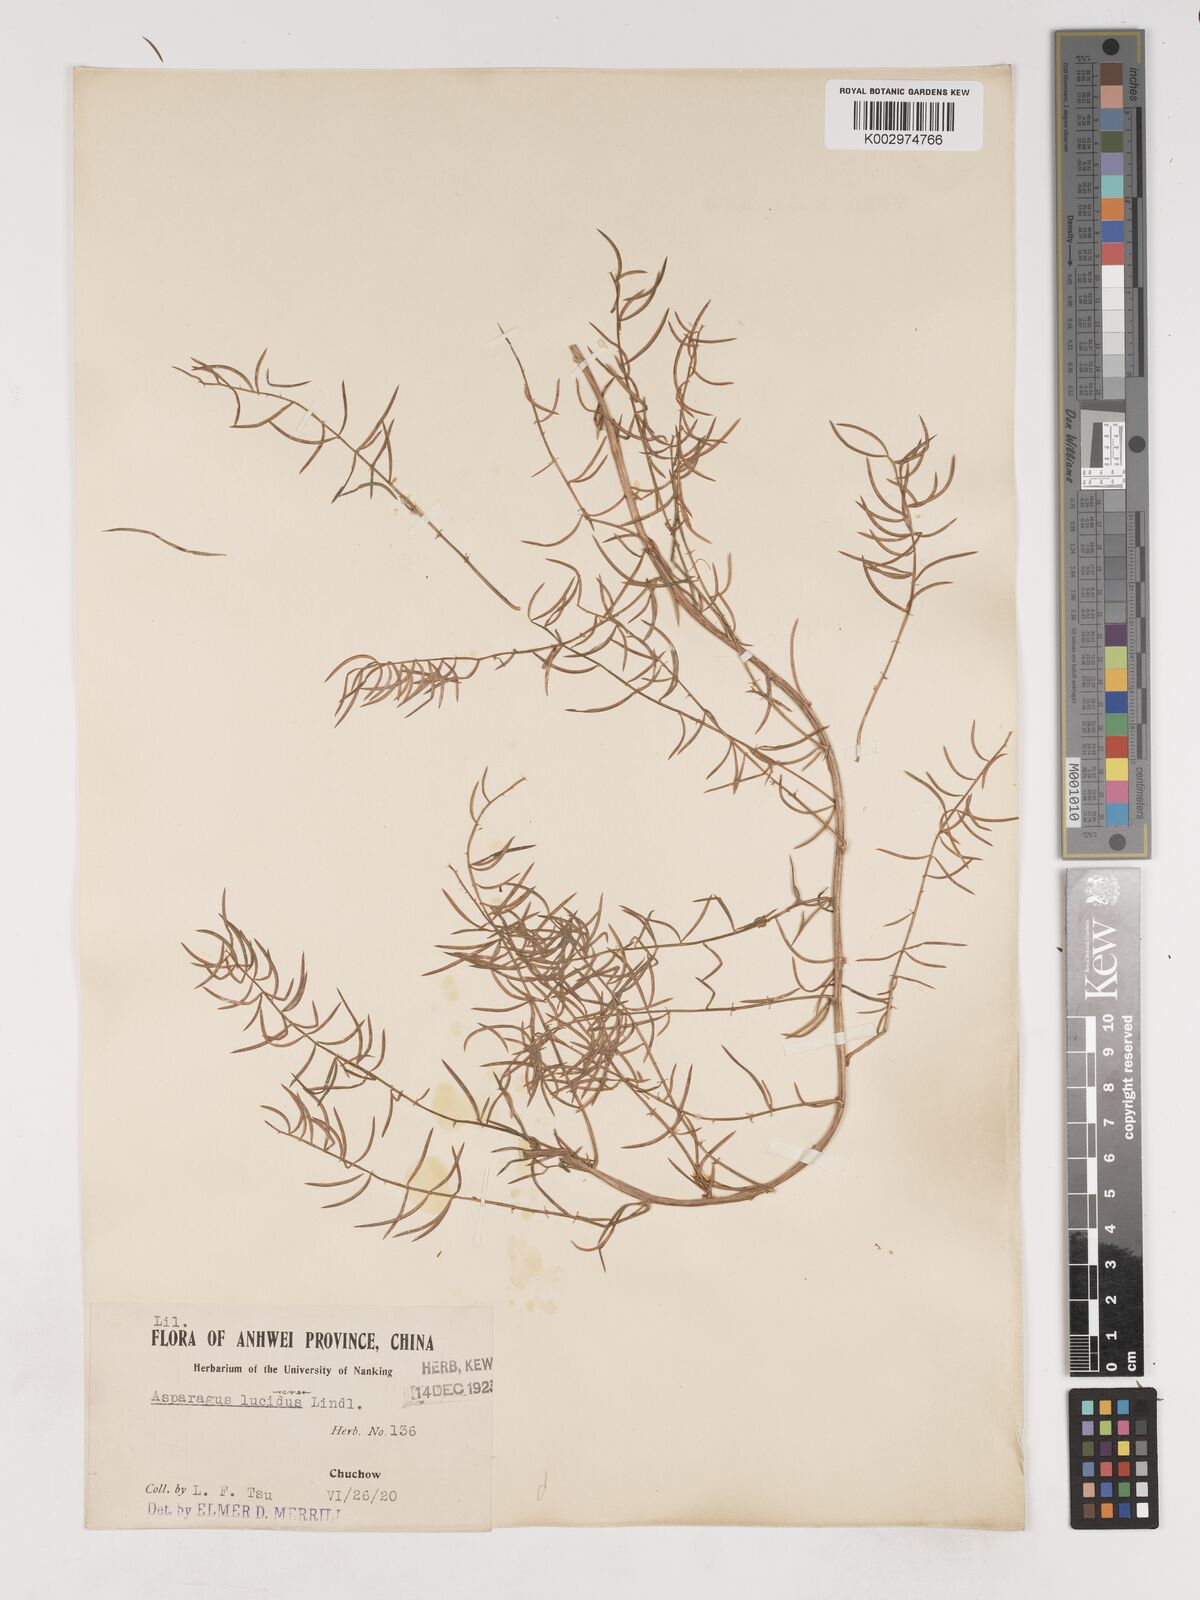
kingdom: Plantae
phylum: Tracheophyta
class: Liliopsida
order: Asparagales
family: Asparagaceae
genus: Asparagus
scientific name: Asparagus cochinchinensis
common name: Chinese asparagus
